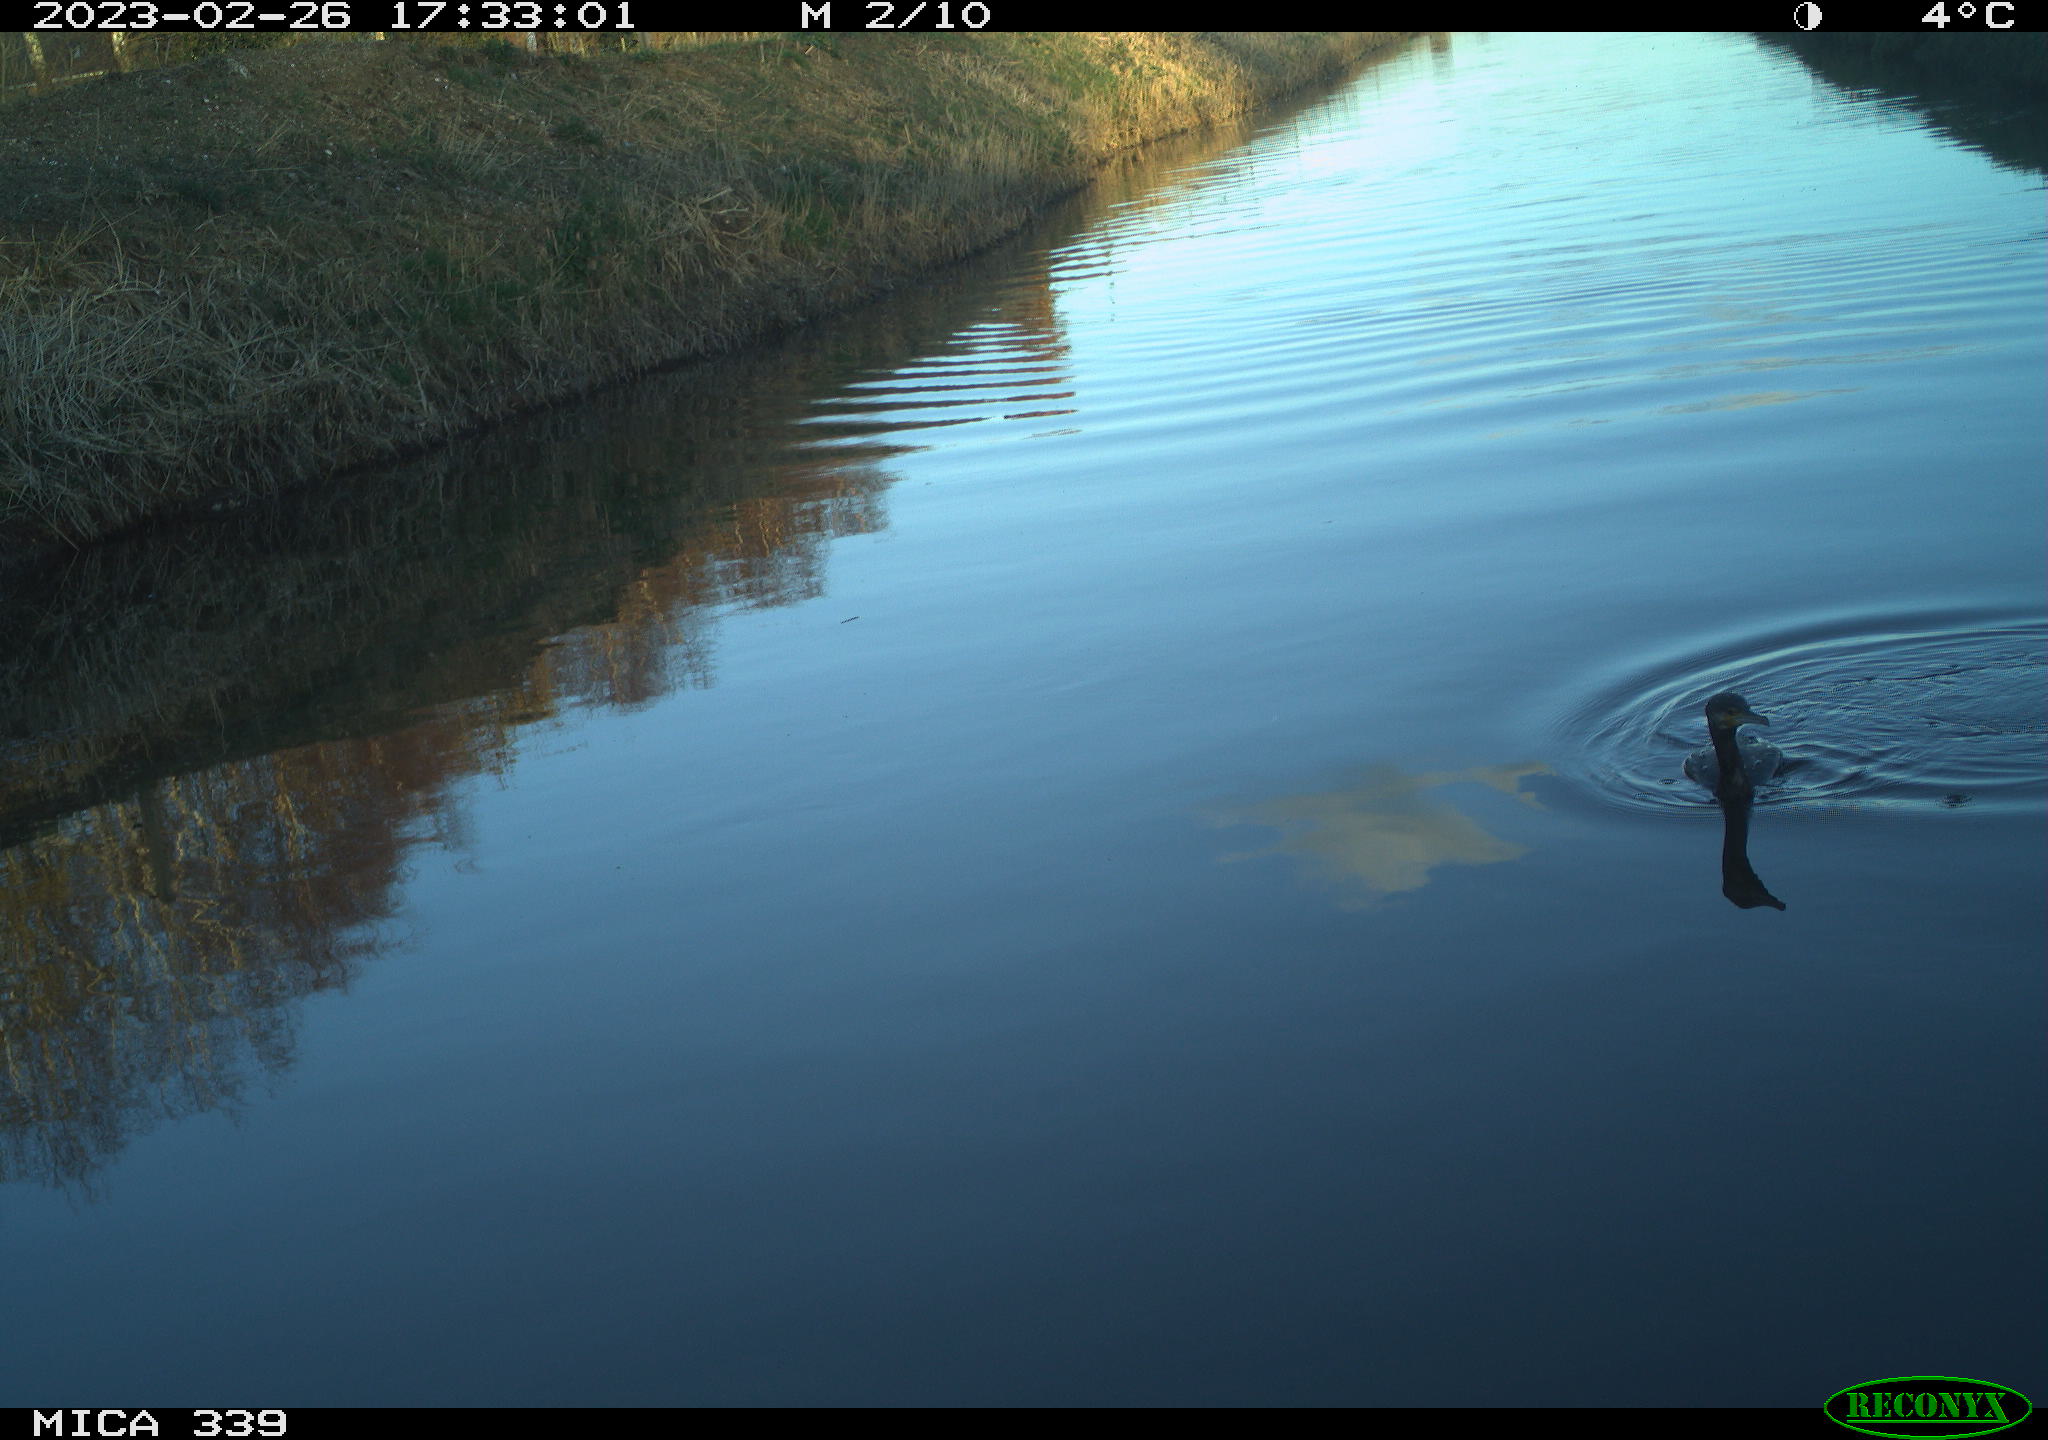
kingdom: Animalia
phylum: Chordata
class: Aves
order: Suliformes
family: Phalacrocoracidae
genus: Phalacrocorax
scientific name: Phalacrocorax carbo
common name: Great cormorant
